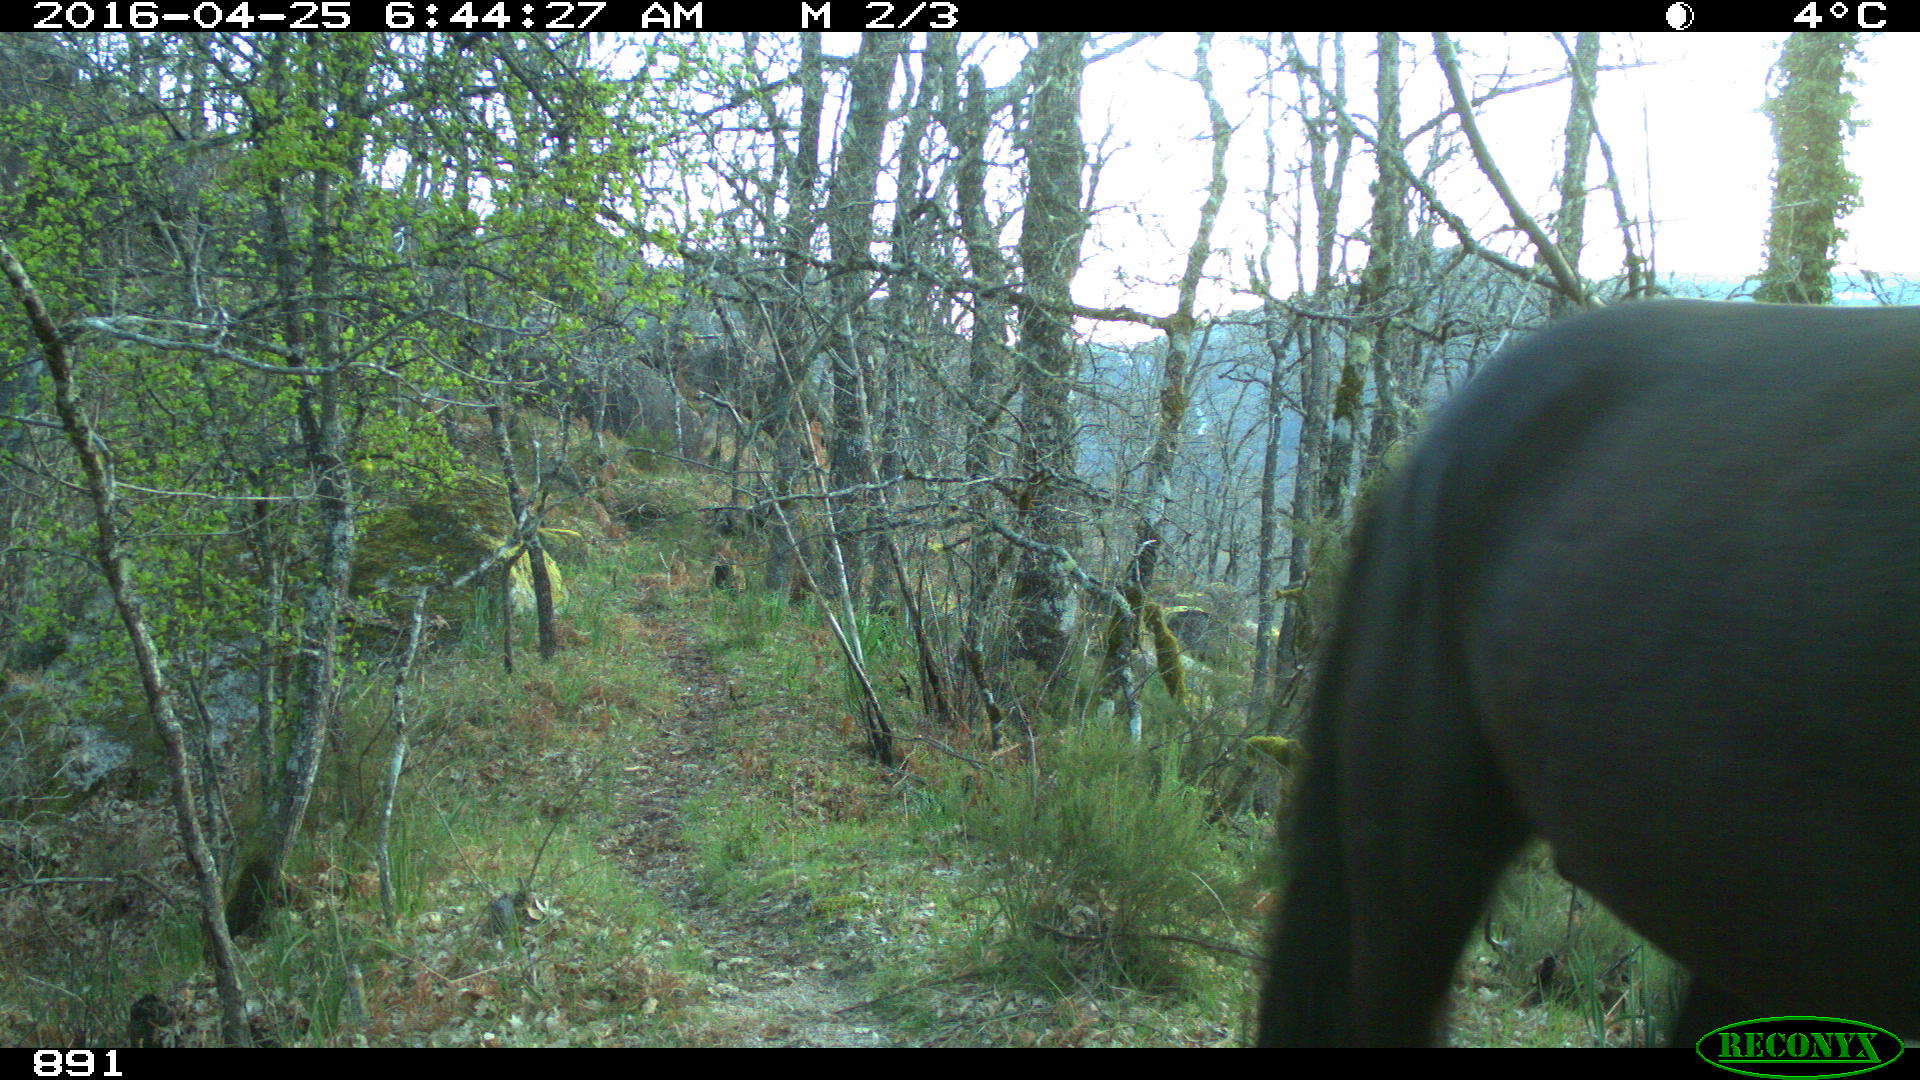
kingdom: Animalia
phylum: Chordata
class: Mammalia
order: Perissodactyla
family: Equidae
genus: Equus
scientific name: Equus caballus
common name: Horse
